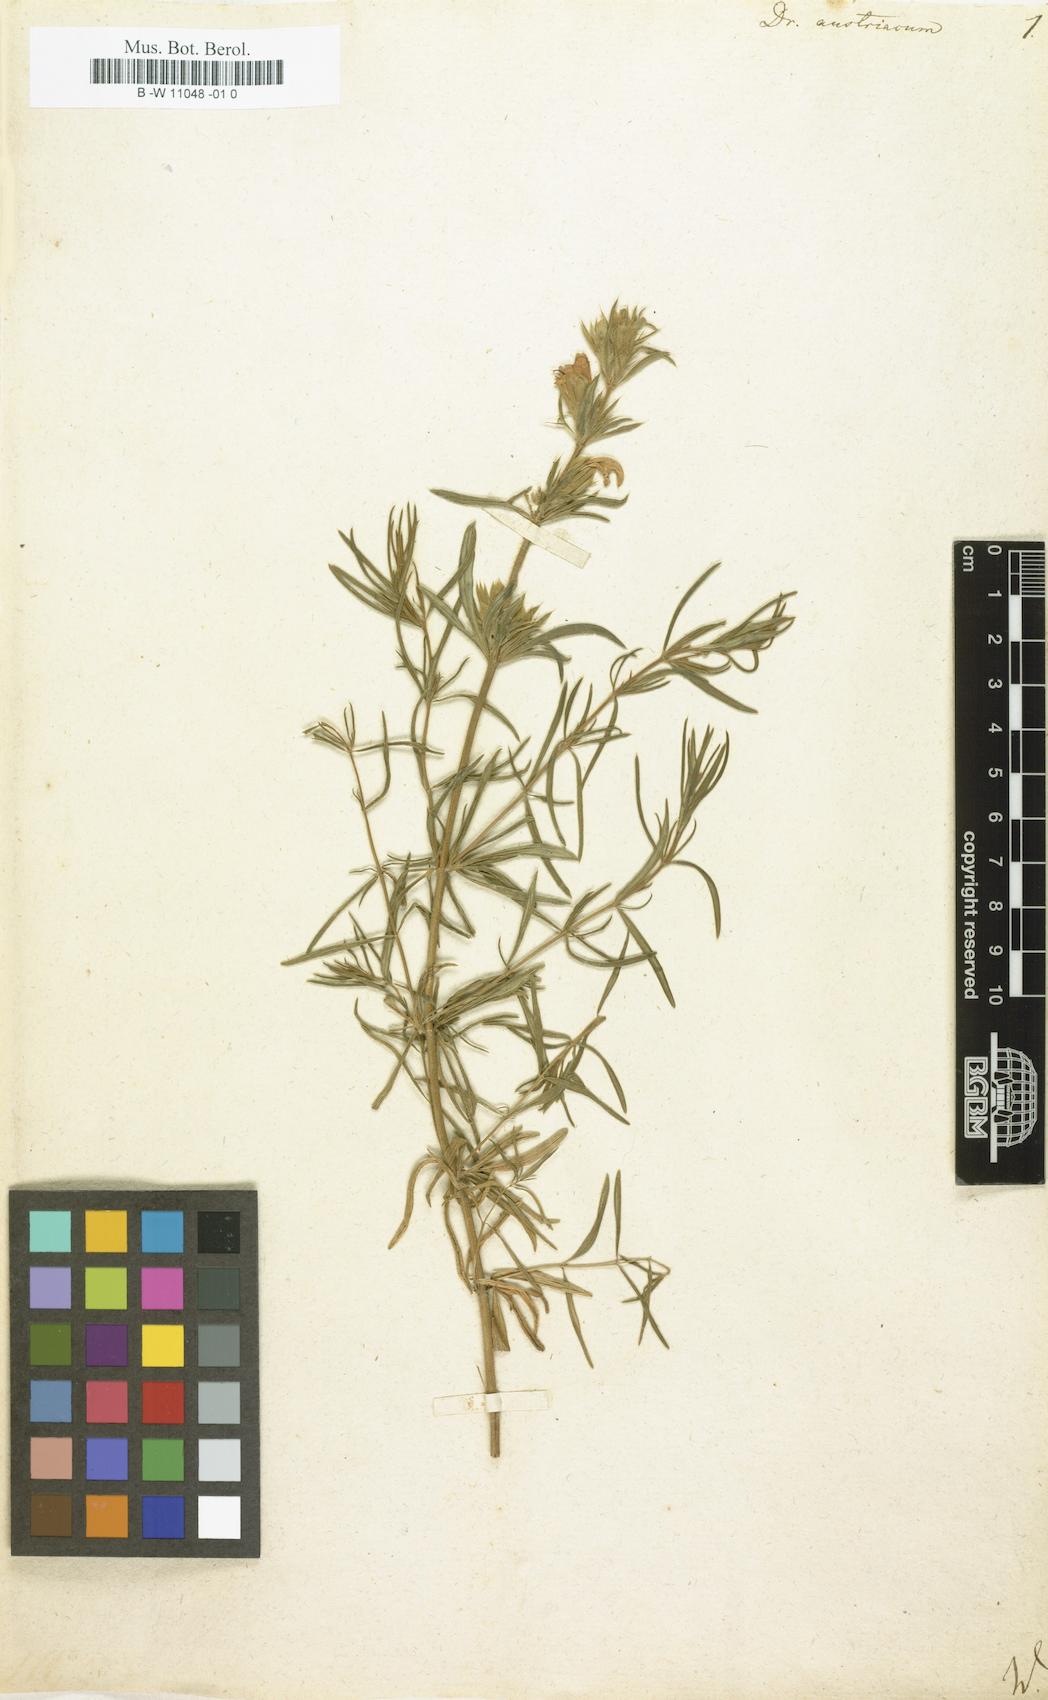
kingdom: Plantae
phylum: Tracheophyta
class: Magnoliopsida
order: Lamiales
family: Lamiaceae
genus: Dracocephalum
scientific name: Dracocephalum austriacum
